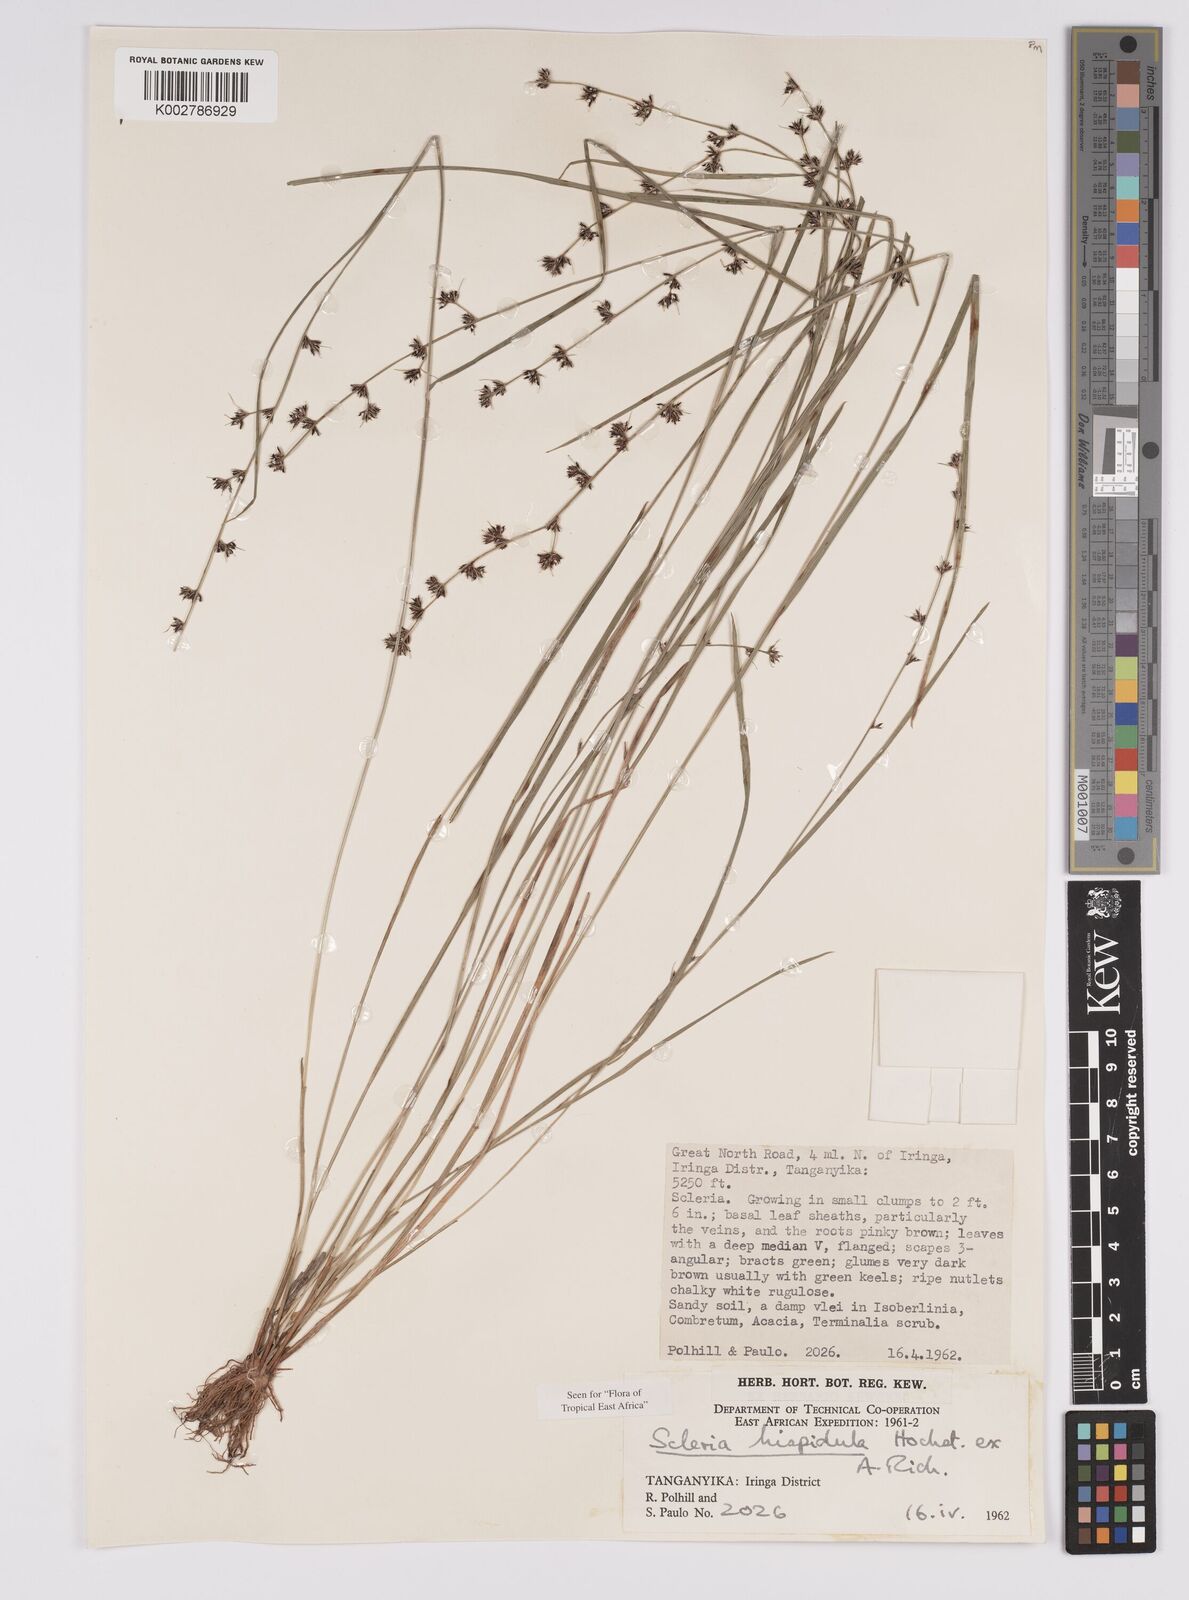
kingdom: Plantae
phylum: Tracheophyta
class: Liliopsida
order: Poales
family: Cyperaceae
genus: Scleria
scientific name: Scleria hispidula
